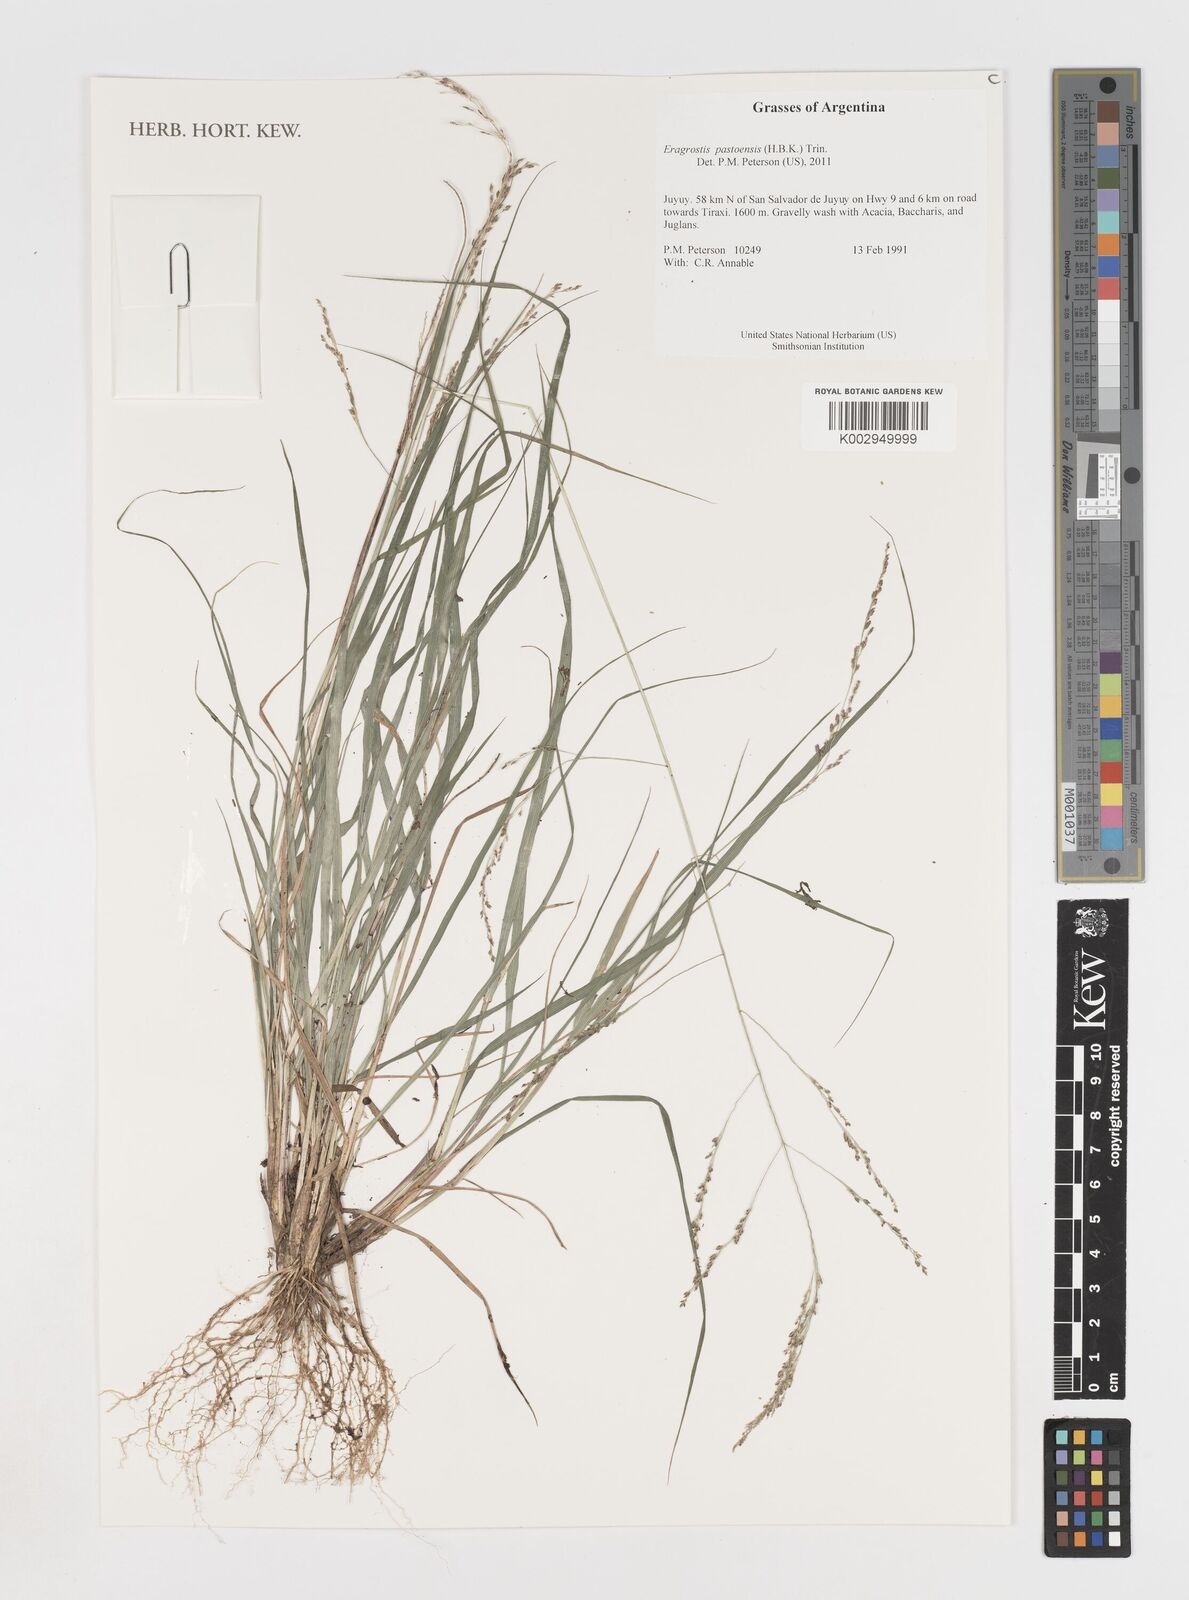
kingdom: Plantae
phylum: Tracheophyta
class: Liliopsida
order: Poales
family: Poaceae
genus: Eragrostis
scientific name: Eragrostis pastoensis
